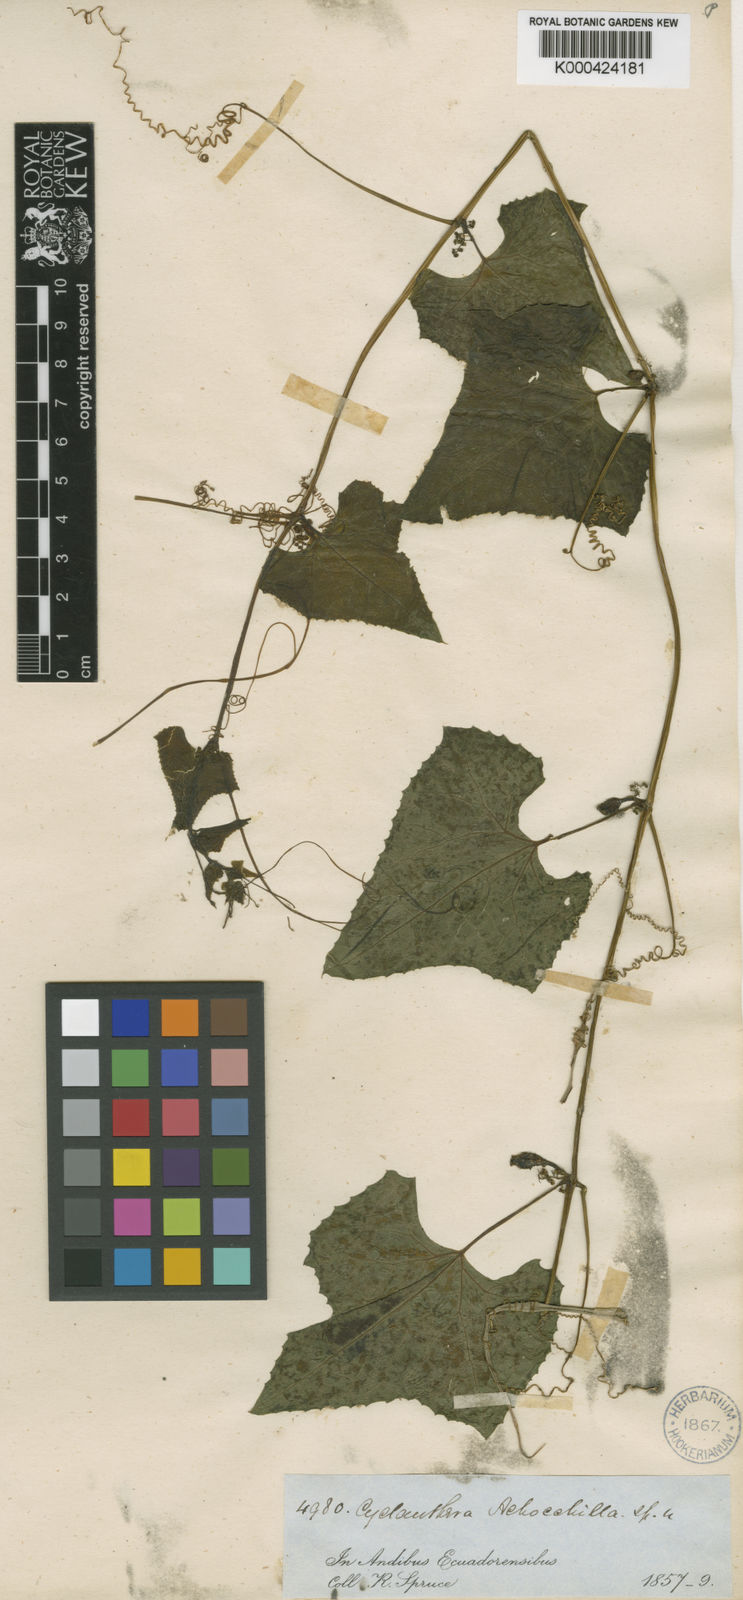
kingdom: Plantae
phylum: Tracheophyta
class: Magnoliopsida
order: Cucurbitales
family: Cucurbitaceae
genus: Cyclanthera
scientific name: Cyclanthera brachybotrys
